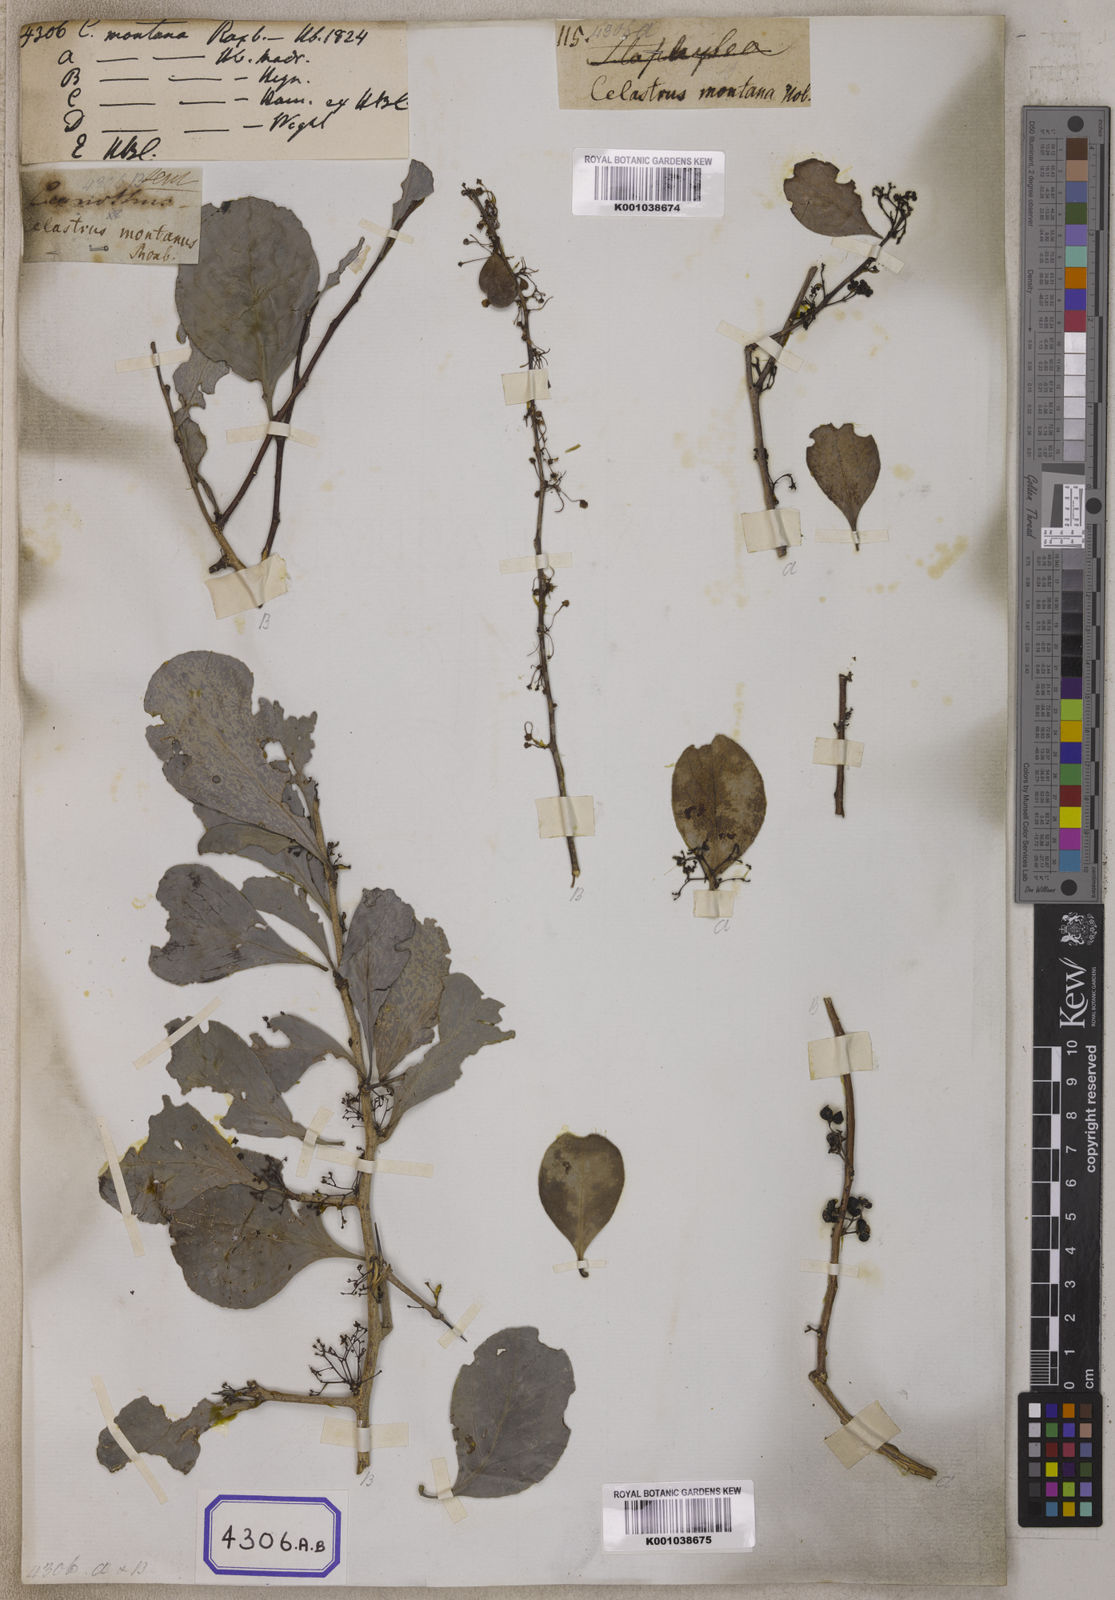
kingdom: Plantae
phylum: Tracheophyta
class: Magnoliopsida
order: Celastrales
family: Celastraceae
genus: Celastrus
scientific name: Celastrus
